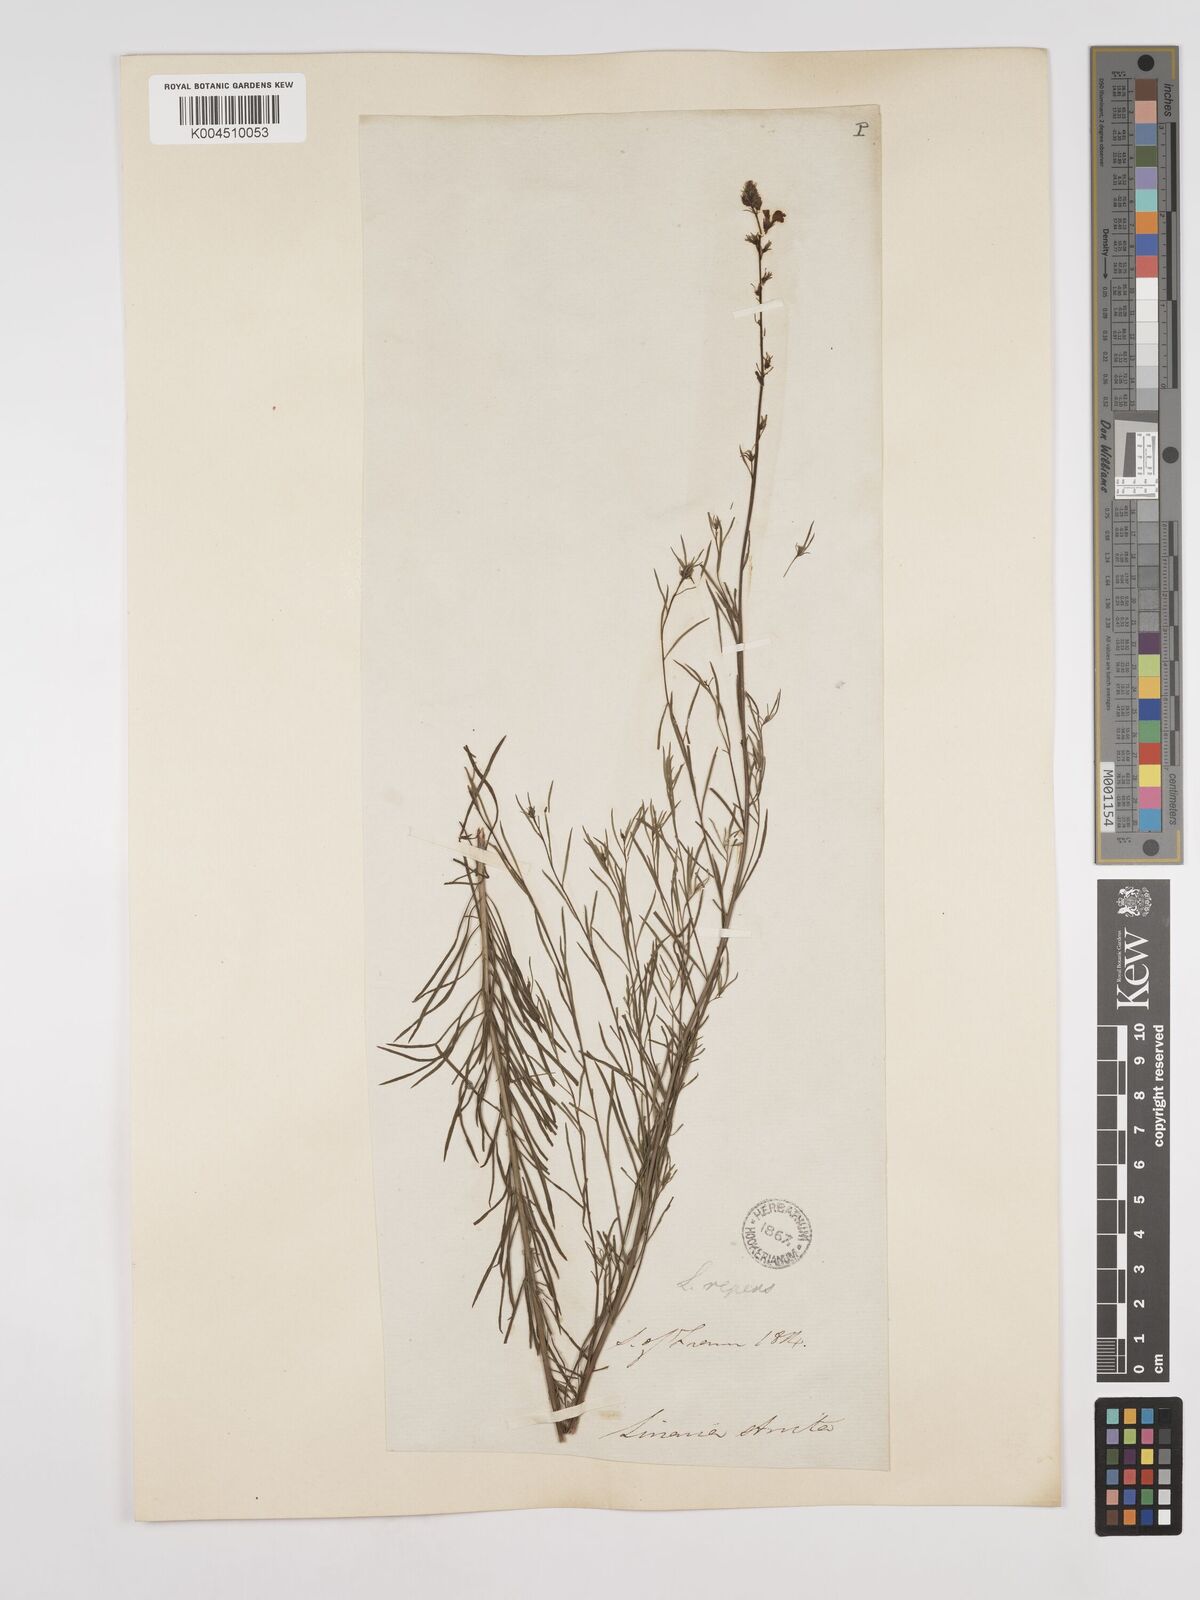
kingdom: Plantae
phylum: Tracheophyta
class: Magnoliopsida
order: Lamiales
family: Plantaginaceae
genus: Linaria
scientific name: Linaria repens
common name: Pale toadflax
